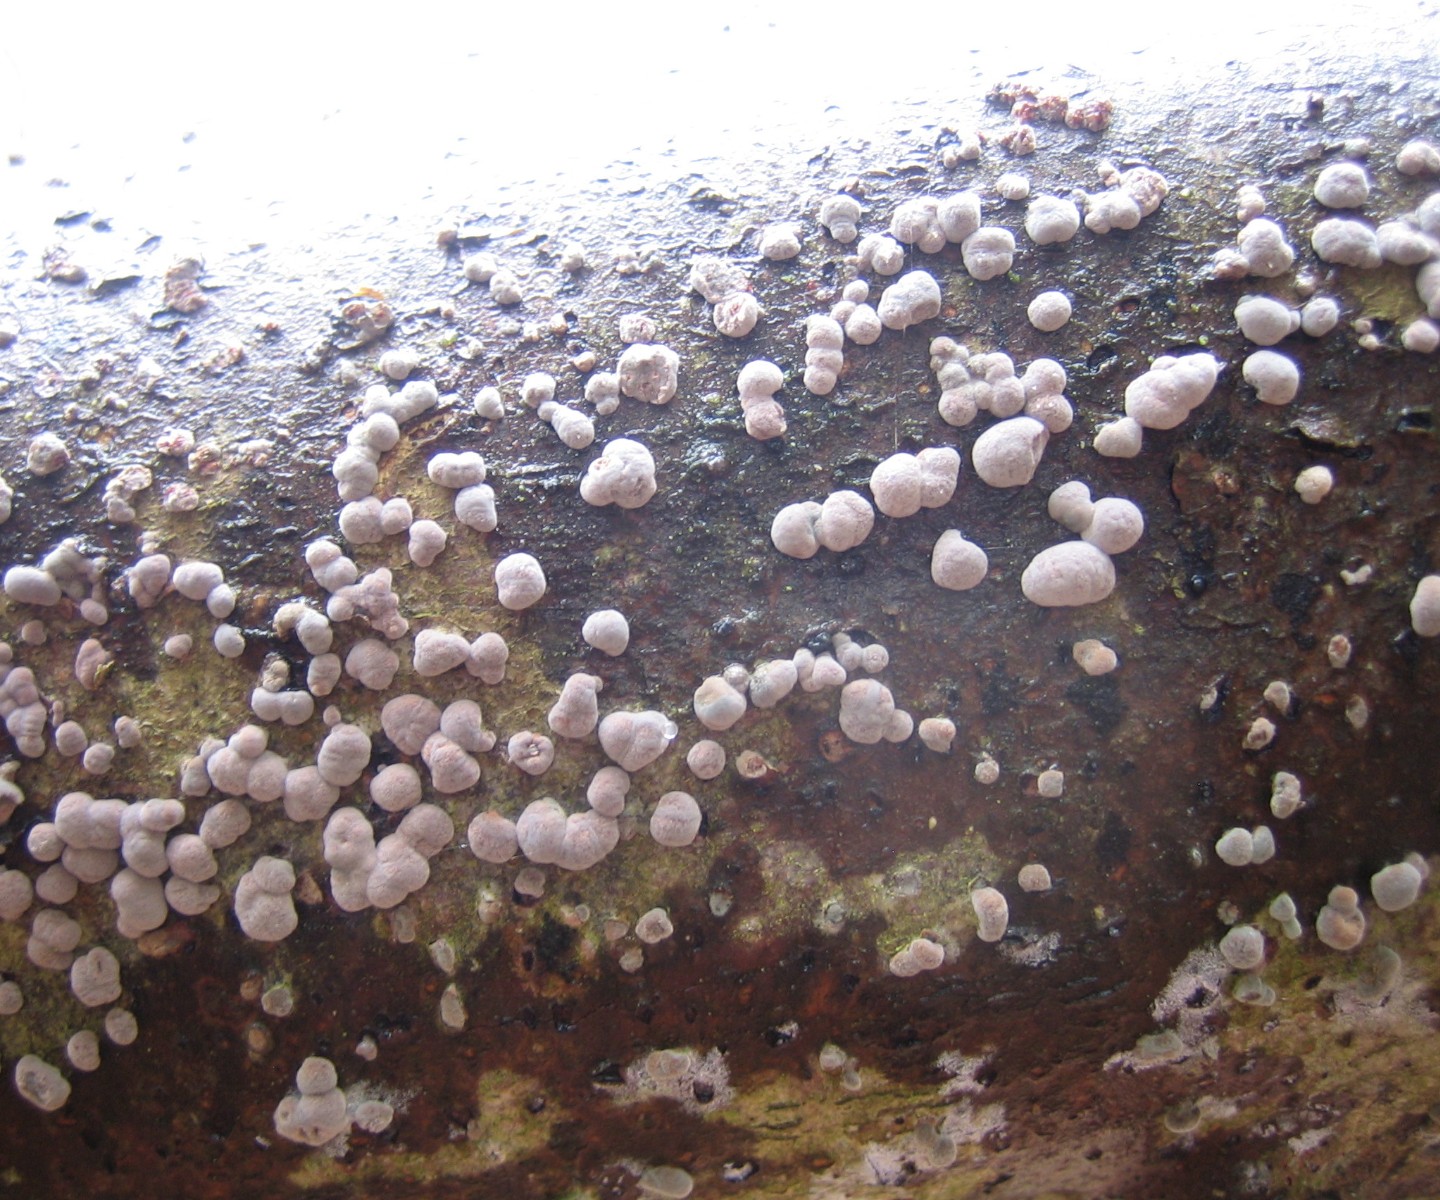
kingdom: Fungi
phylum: Ascomycota
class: Sordariomycetes
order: Xylariales
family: Hypoxylaceae
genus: Hypoxylon
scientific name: Hypoxylon fragiforme
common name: kuljordbær
